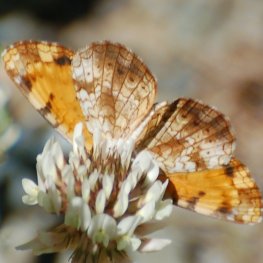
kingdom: Animalia
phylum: Arthropoda
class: Insecta
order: Lepidoptera
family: Nymphalidae
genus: Phyciodes
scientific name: Phyciodes tharos
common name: Northern Crescent
